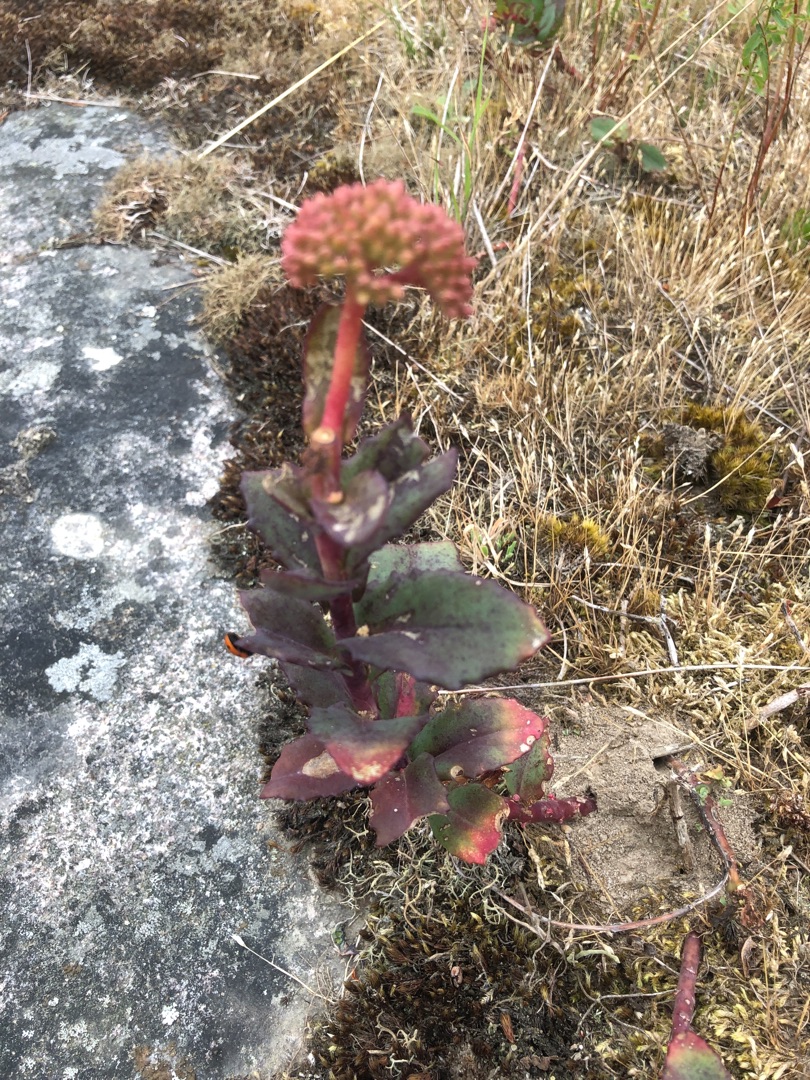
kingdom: Plantae
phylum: Tracheophyta
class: Magnoliopsida
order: Saxifragales
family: Crassulaceae
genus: Hylotelephium
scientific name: Hylotelephium maximum
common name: Almindelig sankthansurt
